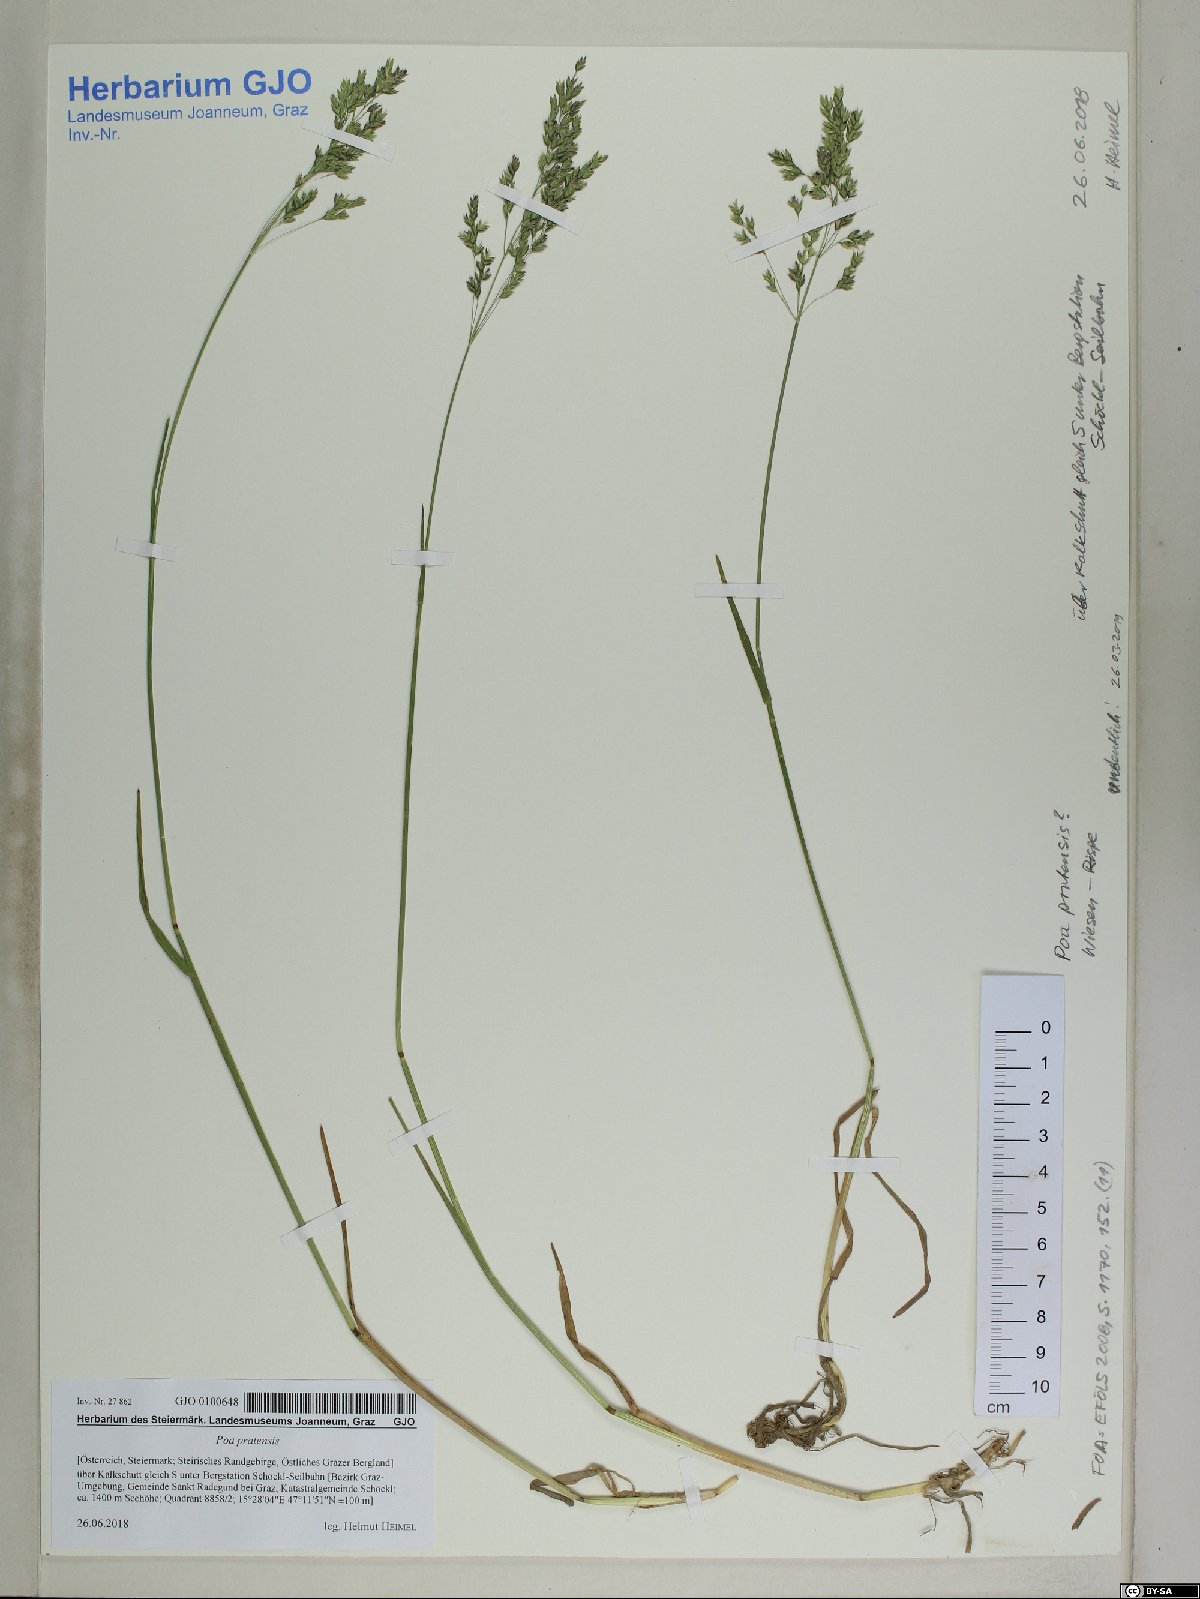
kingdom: Plantae
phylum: Tracheophyta
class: Liliopsida
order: Poales
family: Poaceae
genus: Poa
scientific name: Poa pratensis
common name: Kentucky bluegrass
